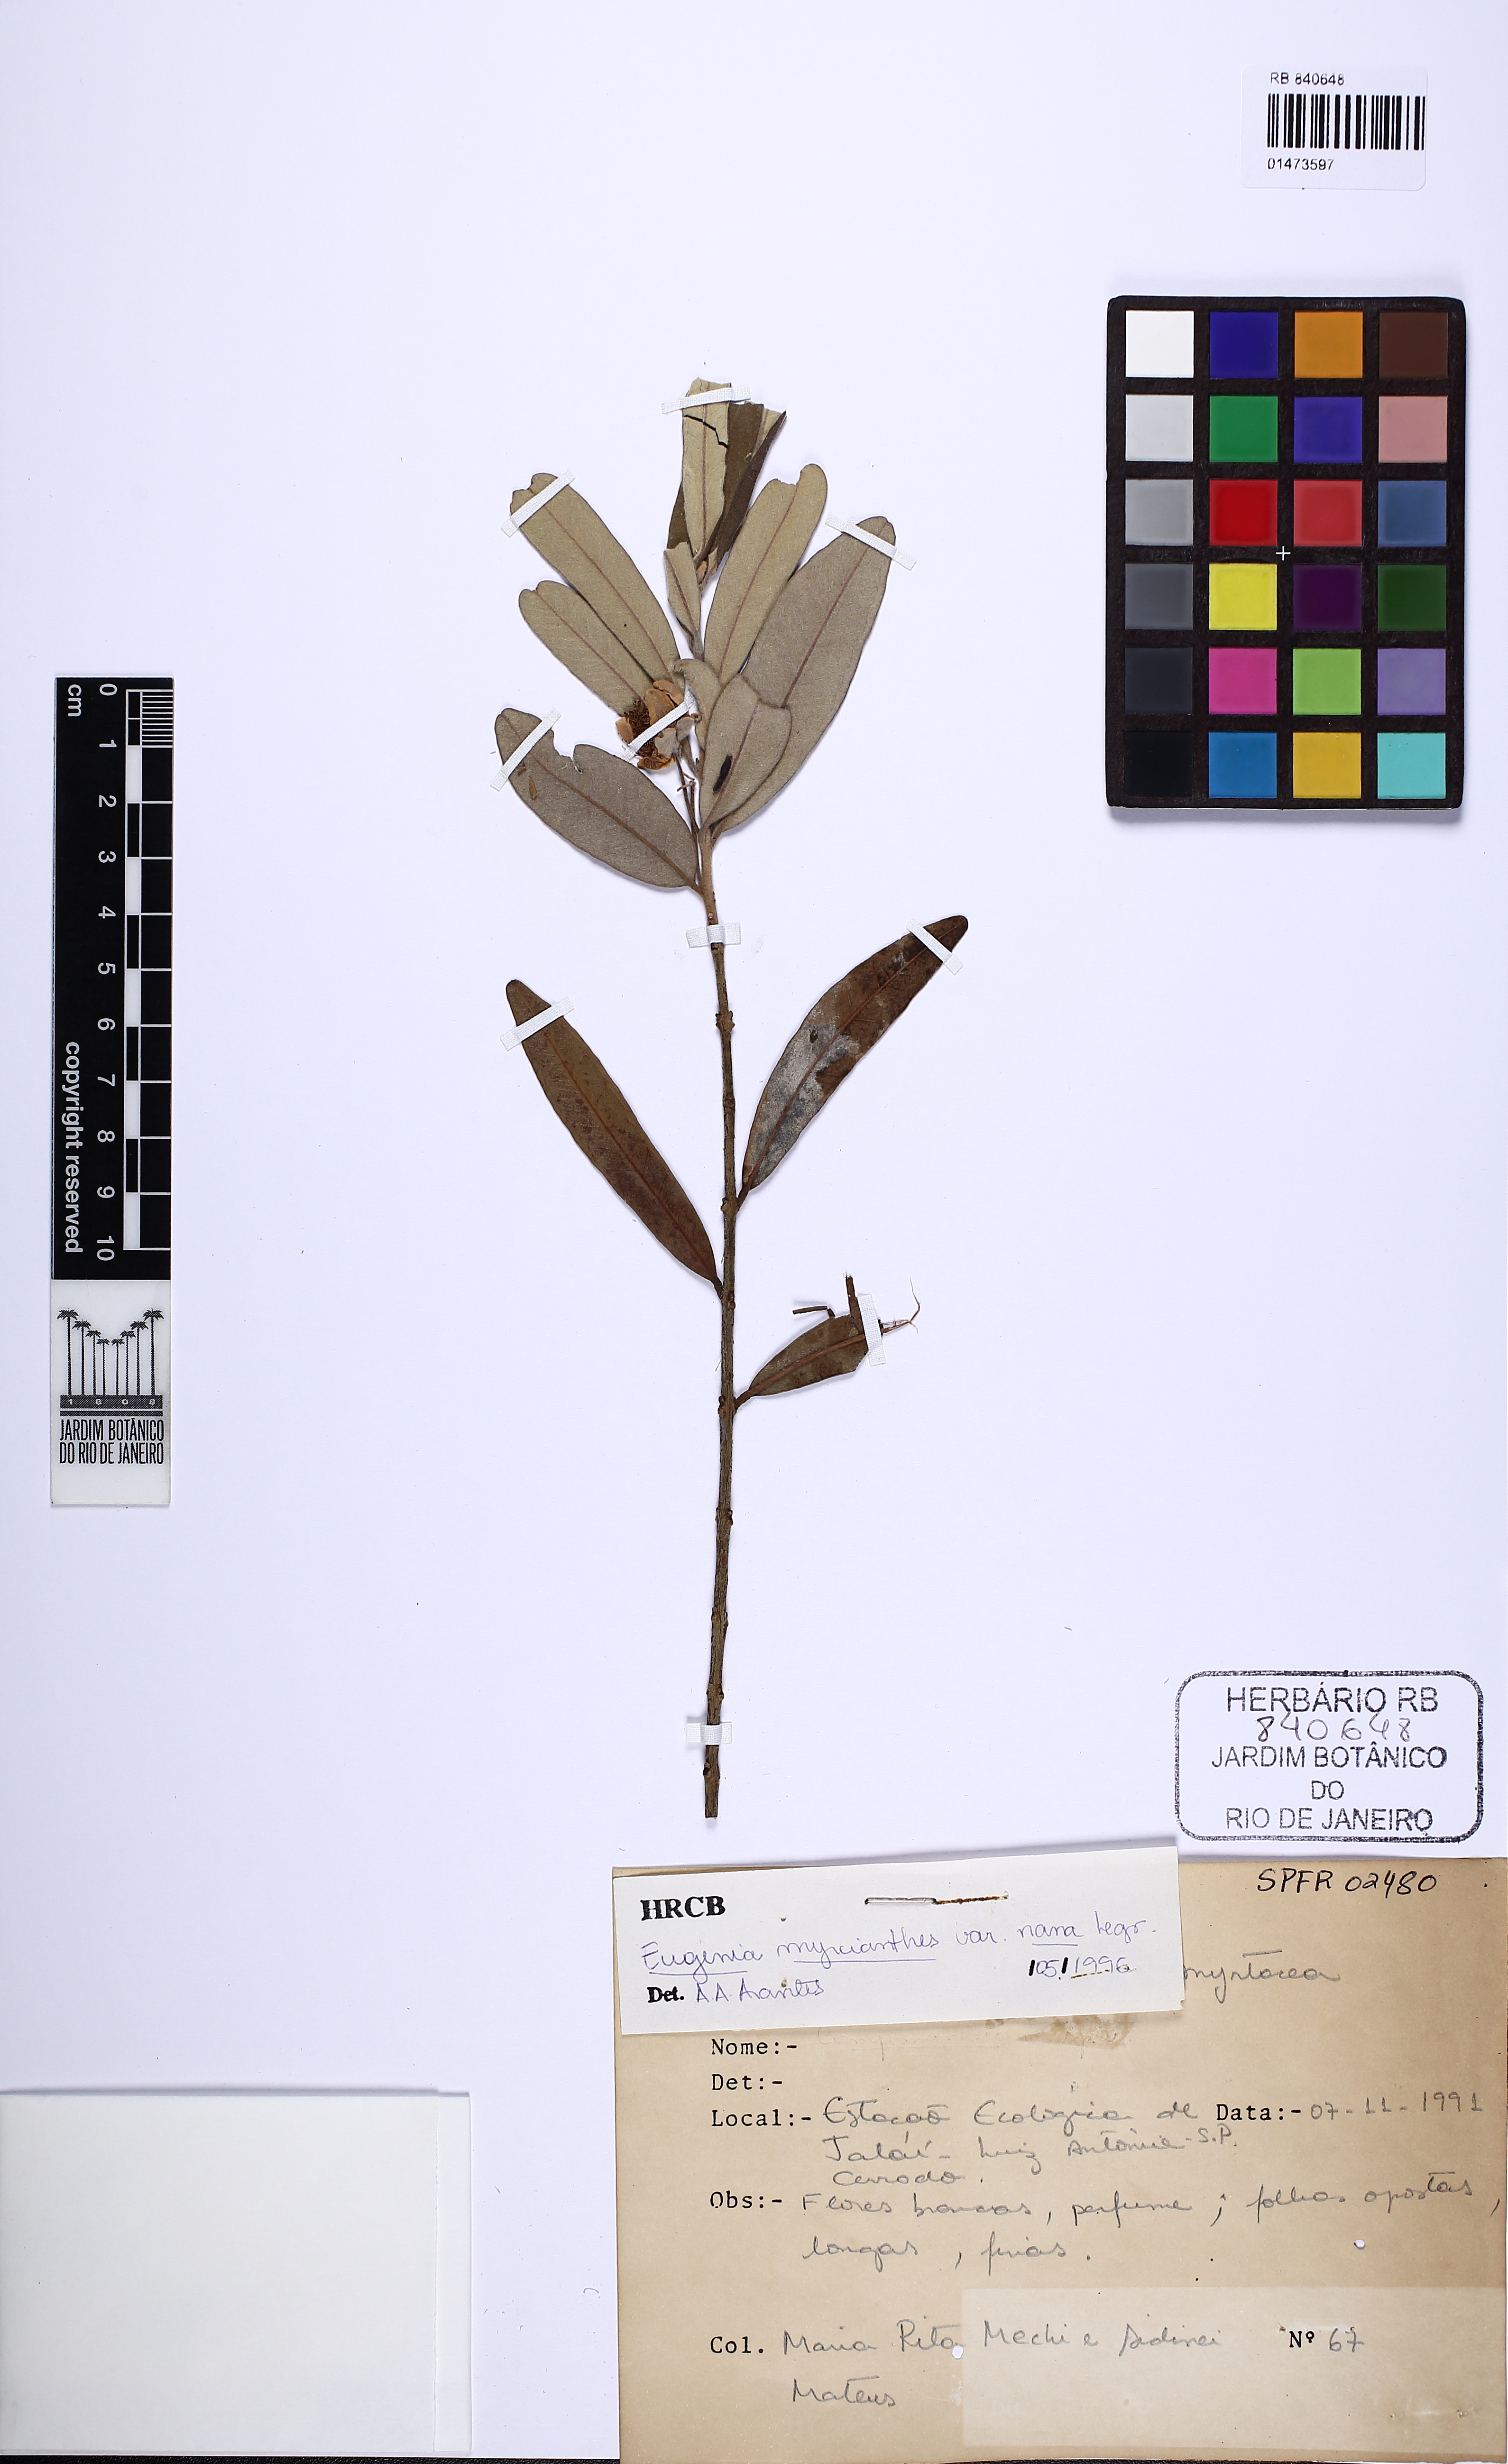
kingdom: Plantae
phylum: Tracheophyta
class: Magnoliopsida
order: Myrtales
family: Myrtaceae
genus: Eugenia
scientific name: Eugenia myrcianthes
